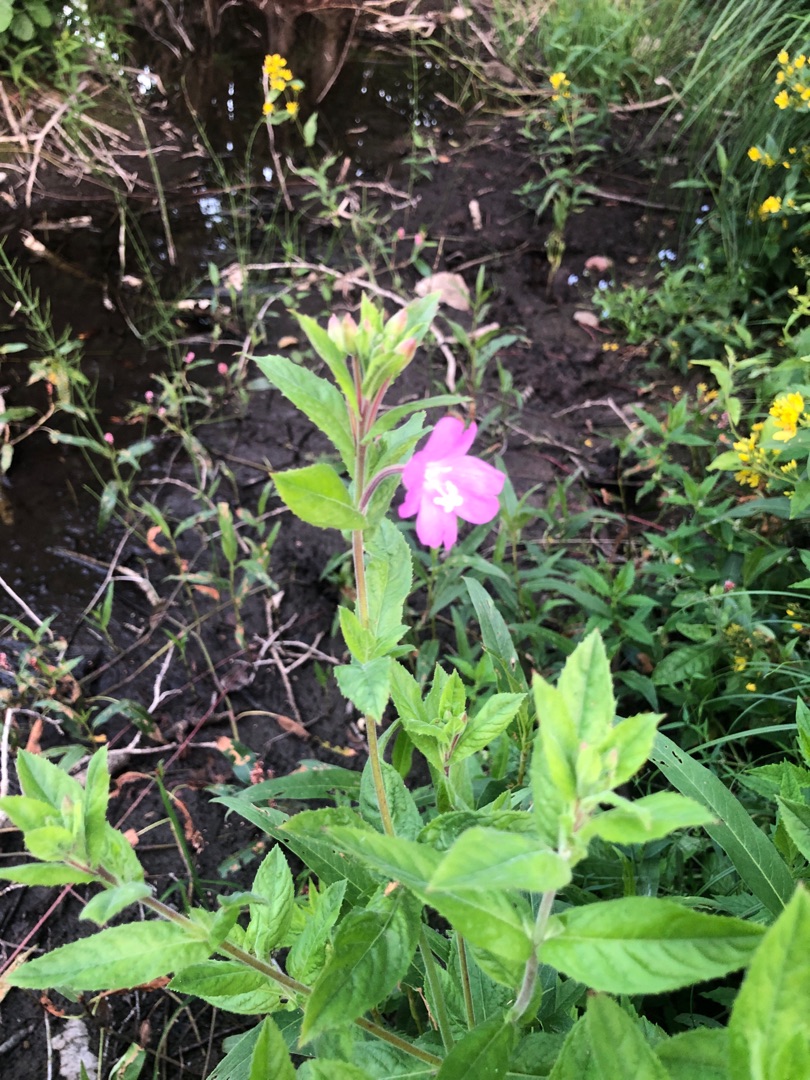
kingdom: Plantae
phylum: Tracheophyta
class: Magnoliopsida
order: Myrtales
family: Onagraceae
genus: Epilobium
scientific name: Epilobium hirsutum
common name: Lådden dueurt
